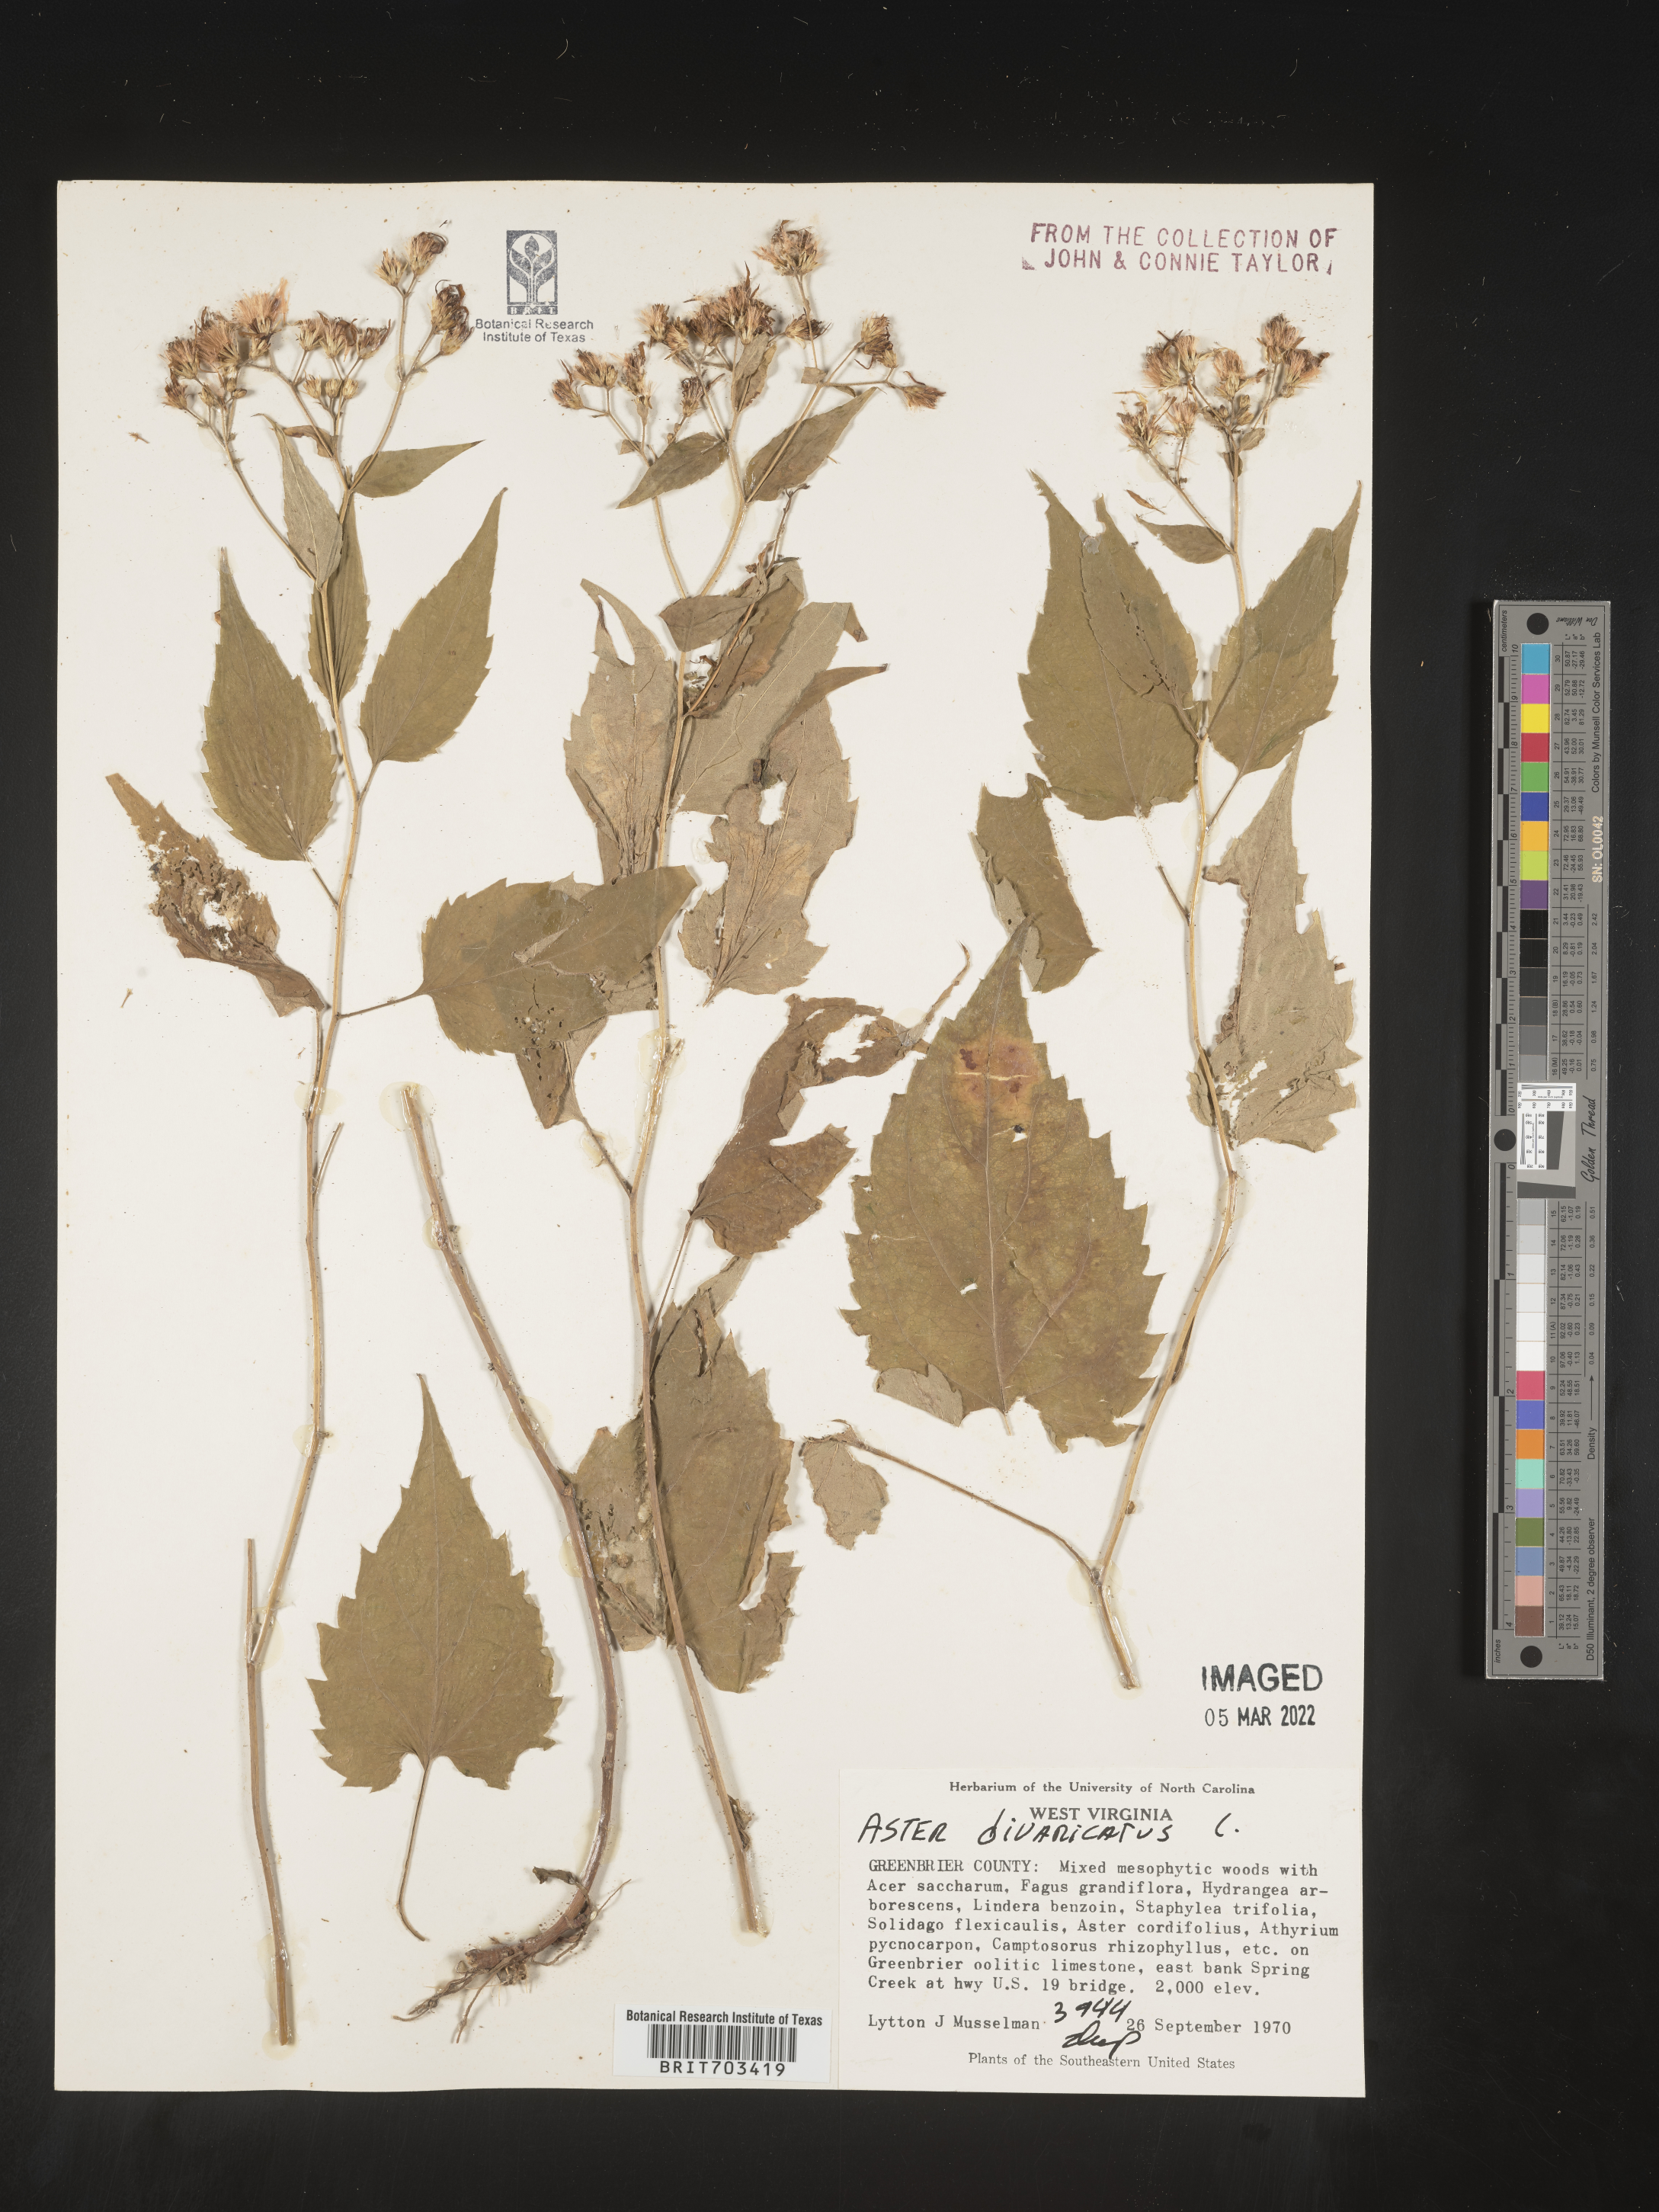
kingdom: Plantae
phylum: Tracheophyta
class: Magnoliopsida
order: Asterales
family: Asteraceae
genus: Eurybia
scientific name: Eurybia divaricata
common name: White wood aster
